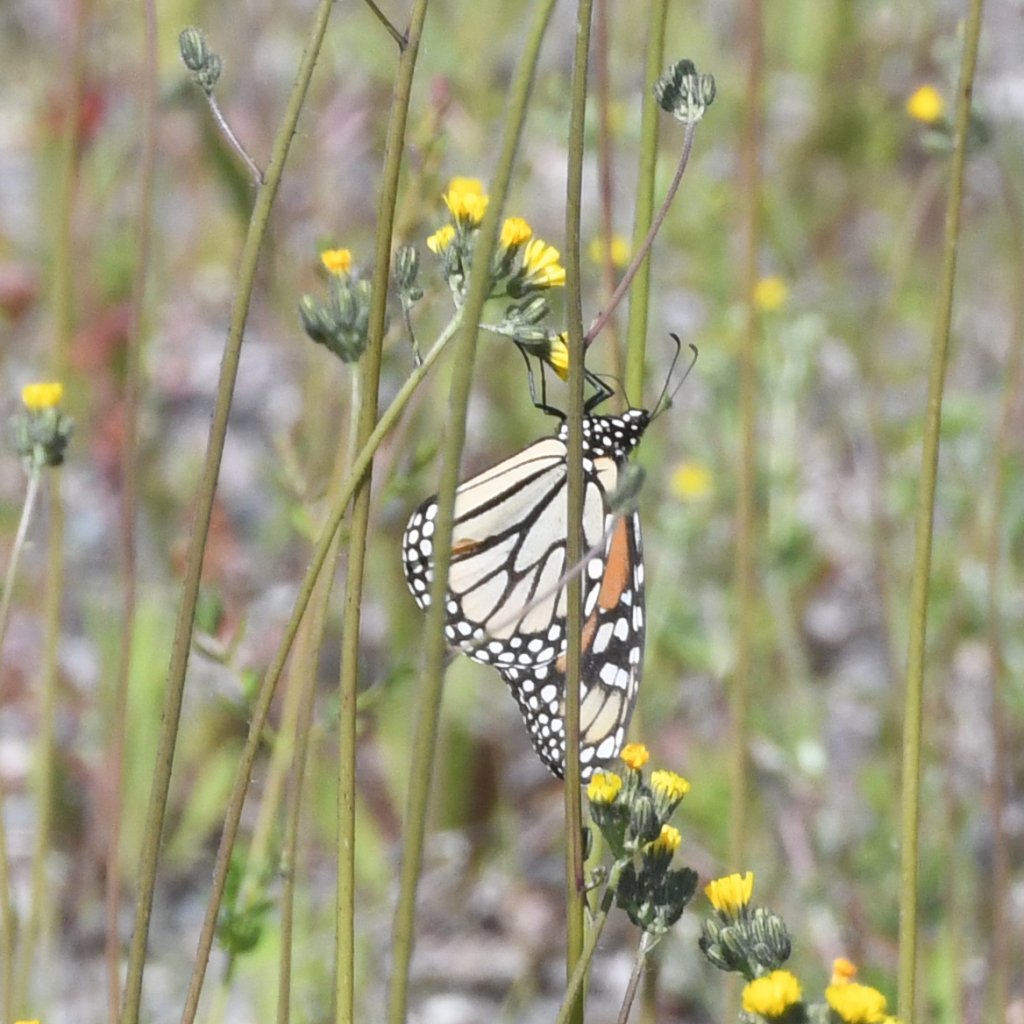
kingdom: Animalia
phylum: Arthropoda
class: Insecta
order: Lepidoptera
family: Nymphalidae
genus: Danaus
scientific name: Danaus plexippus
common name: Monarch
